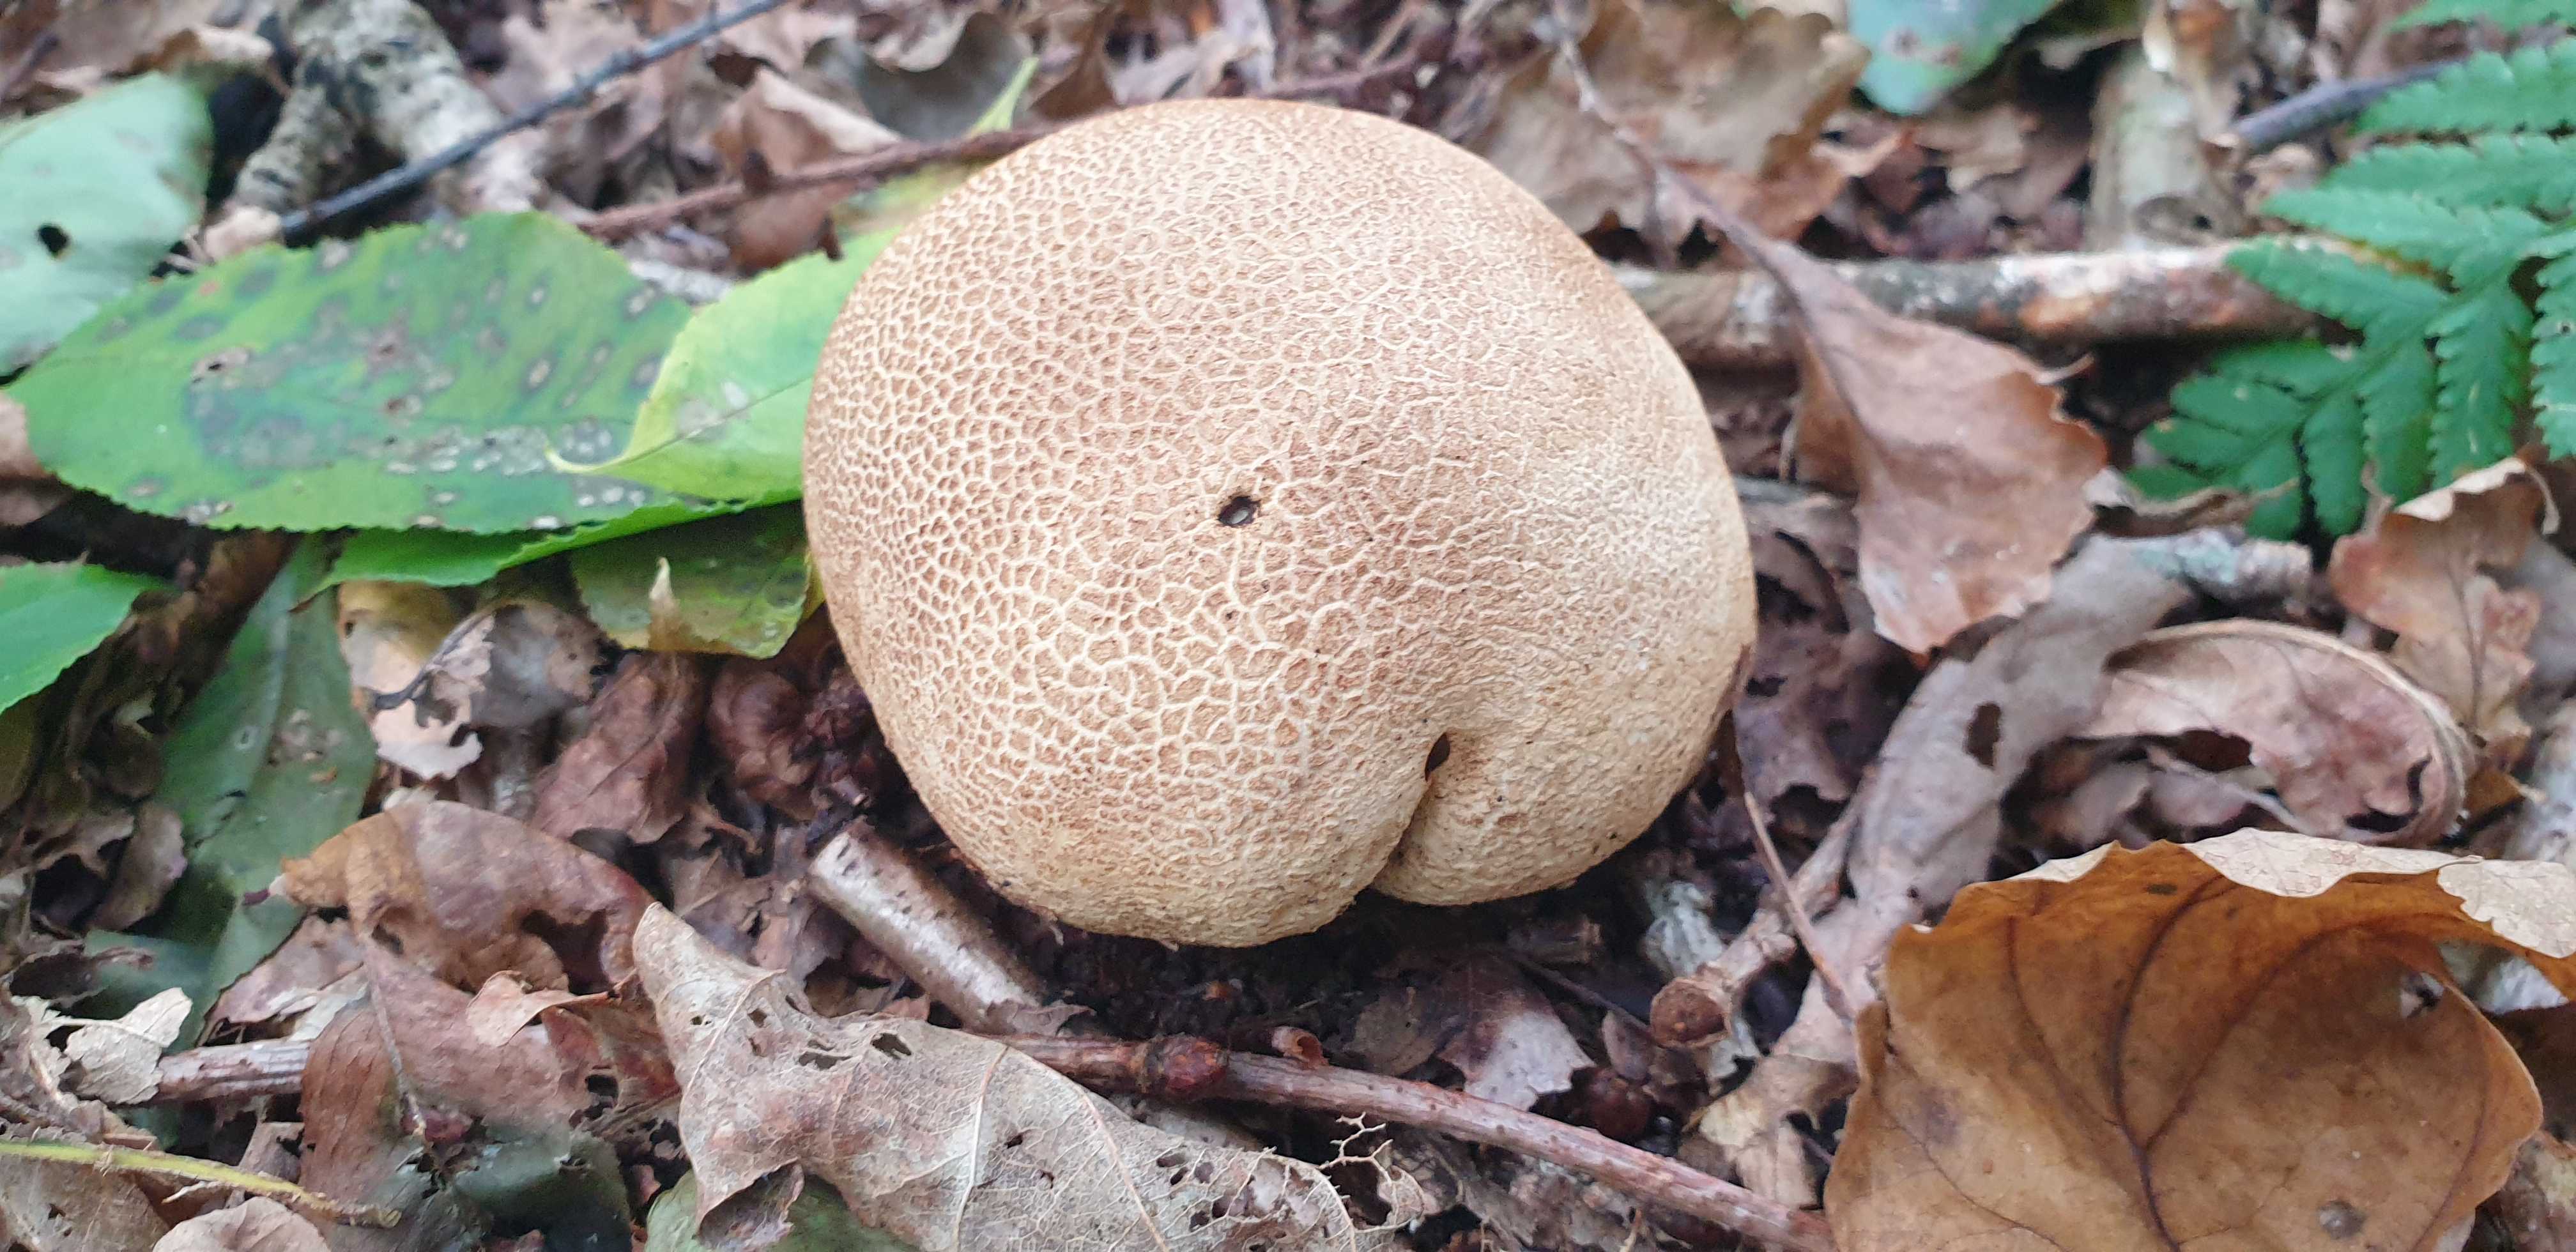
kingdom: Fungi
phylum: Basidiomycota
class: Agaricomycetes
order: Boletales
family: Sclerodermataceae
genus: Scleroderma
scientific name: Scleroderma citrinum
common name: almindelig bruskbold
